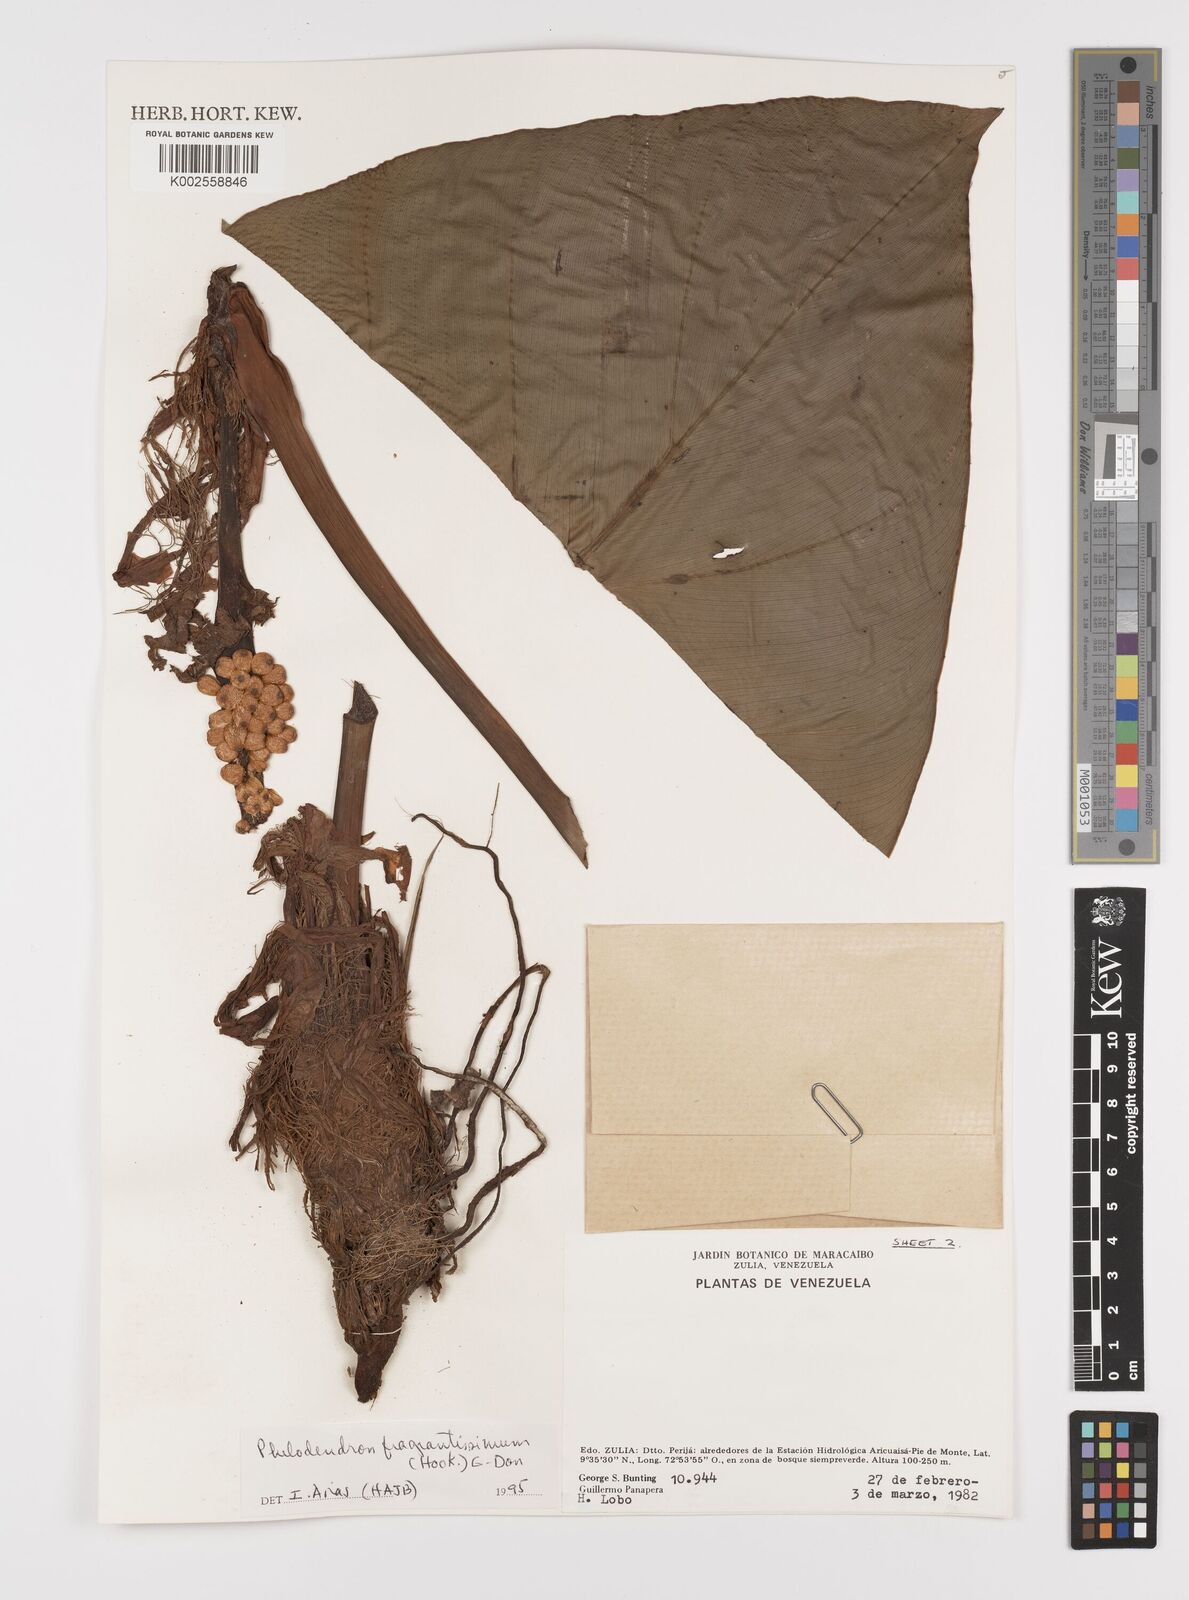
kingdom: Plantae
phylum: Tracheophyta
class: Liliopsida
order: Alismatales
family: Araceae
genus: Philodendron
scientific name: Philodendron fragrantissimum
